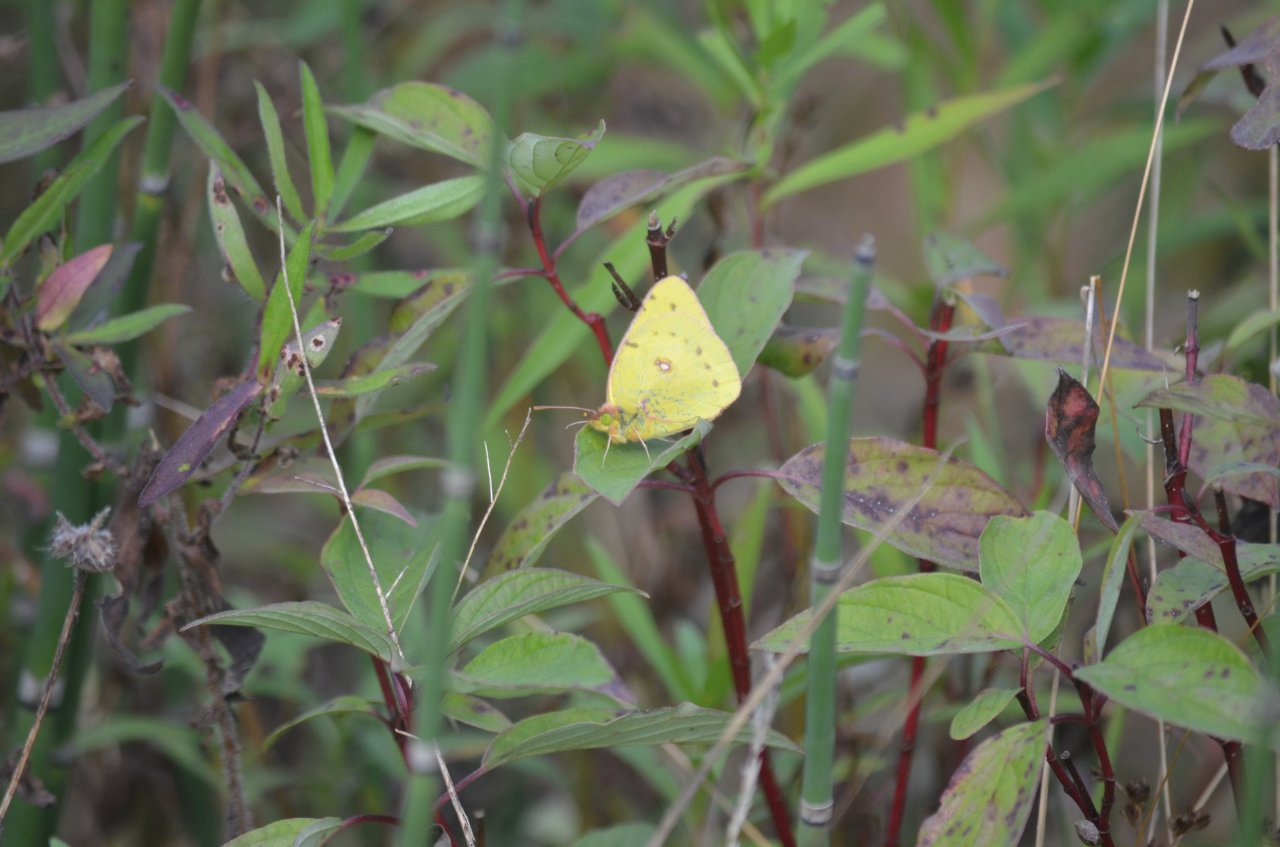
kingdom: Animalia
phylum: Arthropoda
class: Insecta
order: Lepidoptera
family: Pieridae
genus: Colias
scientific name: Colias eurytheme
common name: Orange Sulphur
